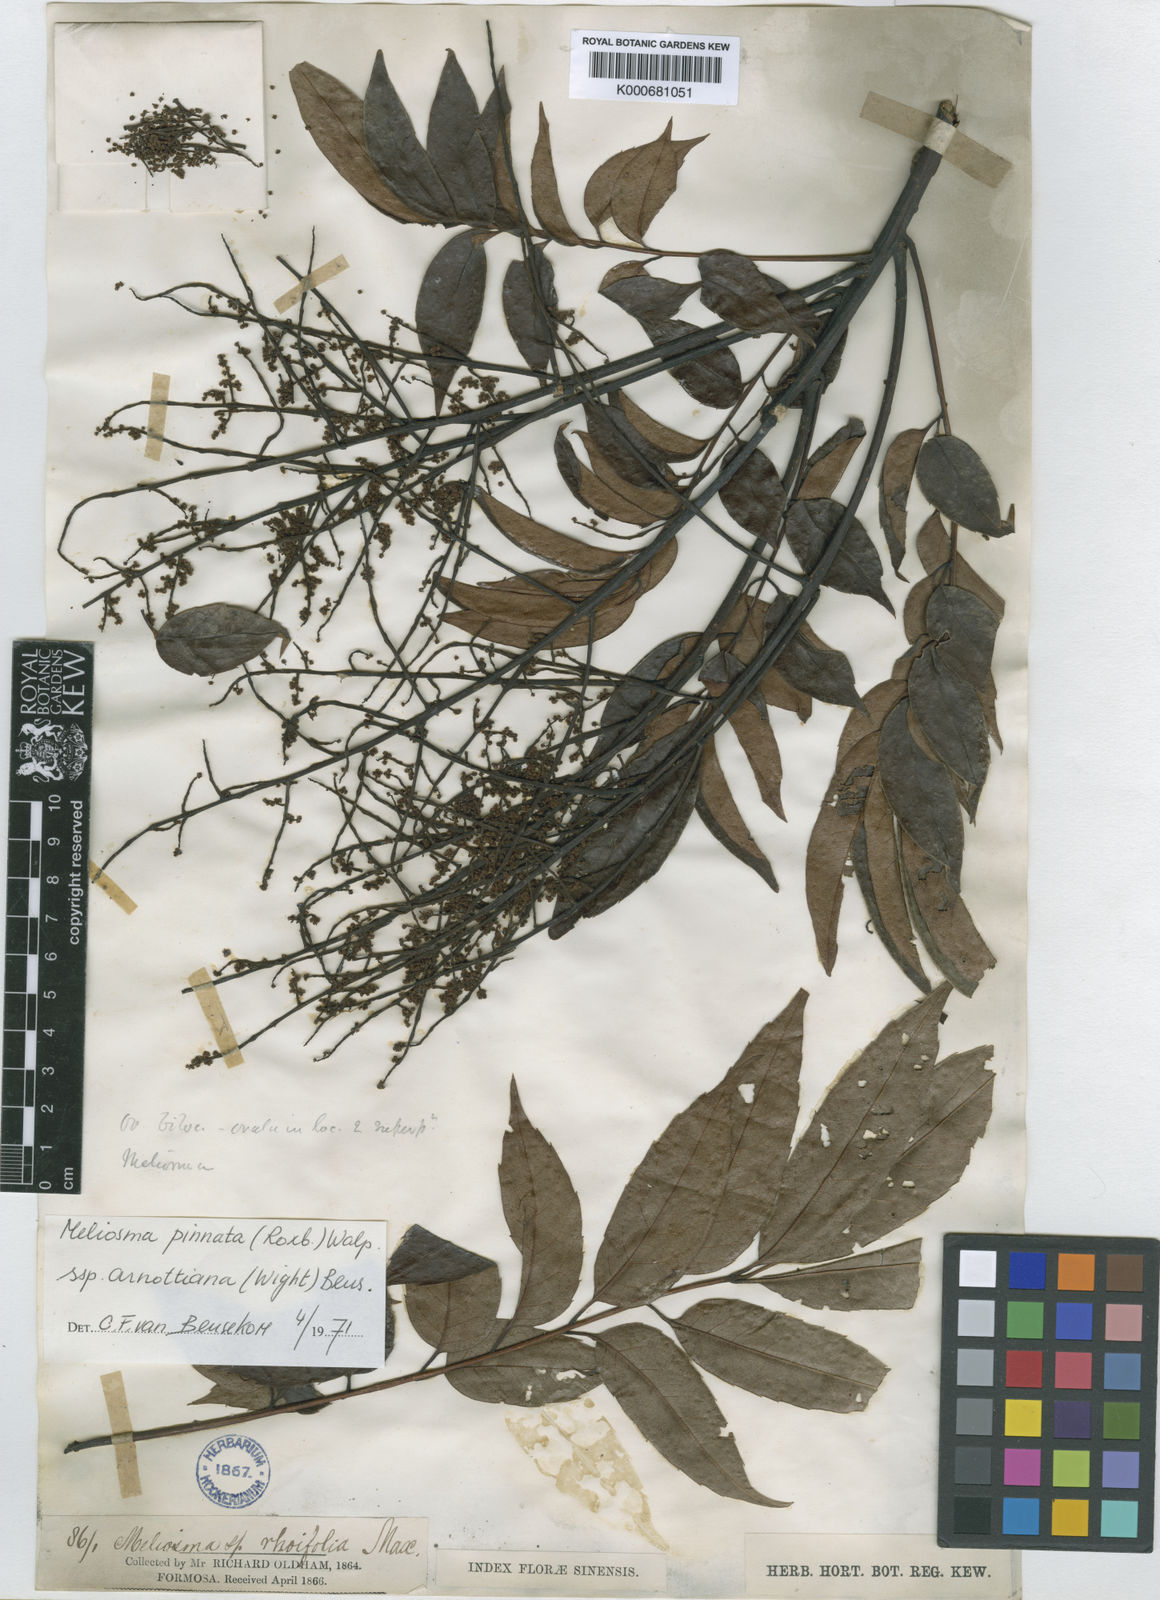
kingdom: Plantae
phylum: Tracheophyta
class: Magnoliopsida
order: Proteales
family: Sabiaceae
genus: Meliosma
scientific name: Meliosma pinnata
